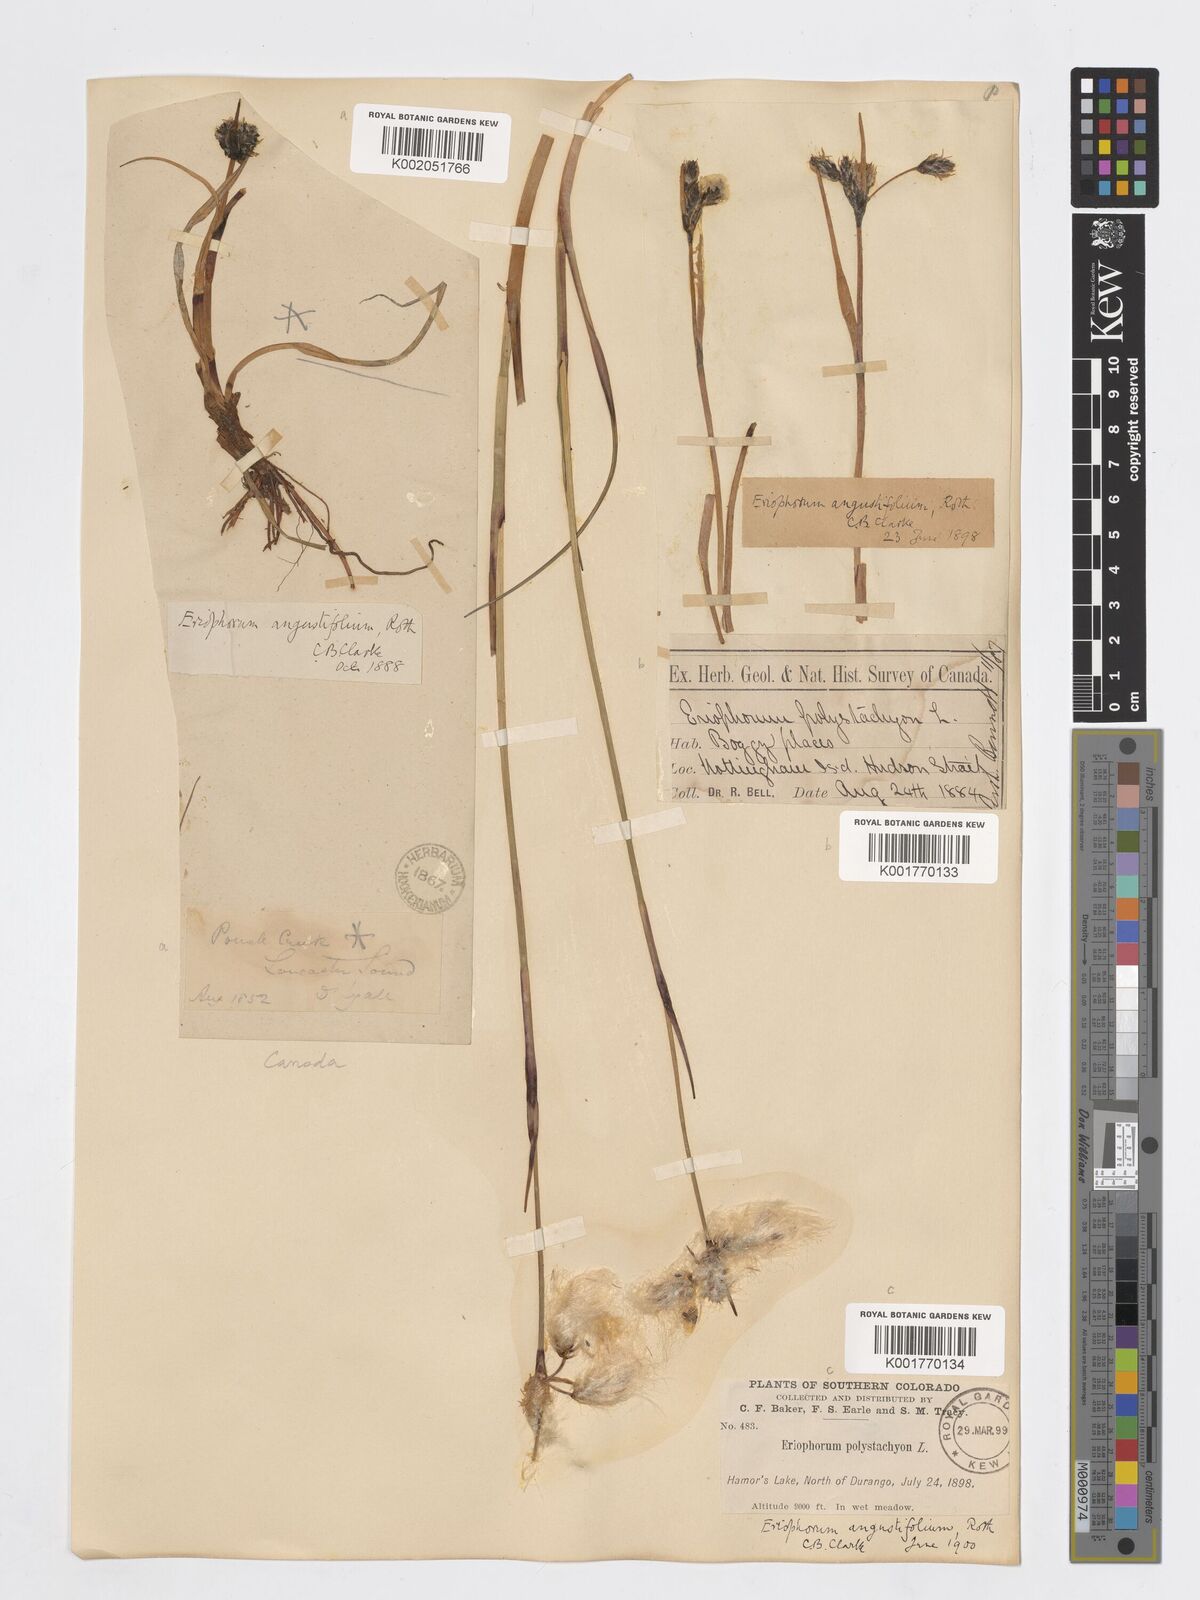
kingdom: Plantae
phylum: Tracheophyta
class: Liliopsida
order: Poales
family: Cyperaceae
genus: Eriophorum
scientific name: Eriophorum angustifolium
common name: Common cottongrass
